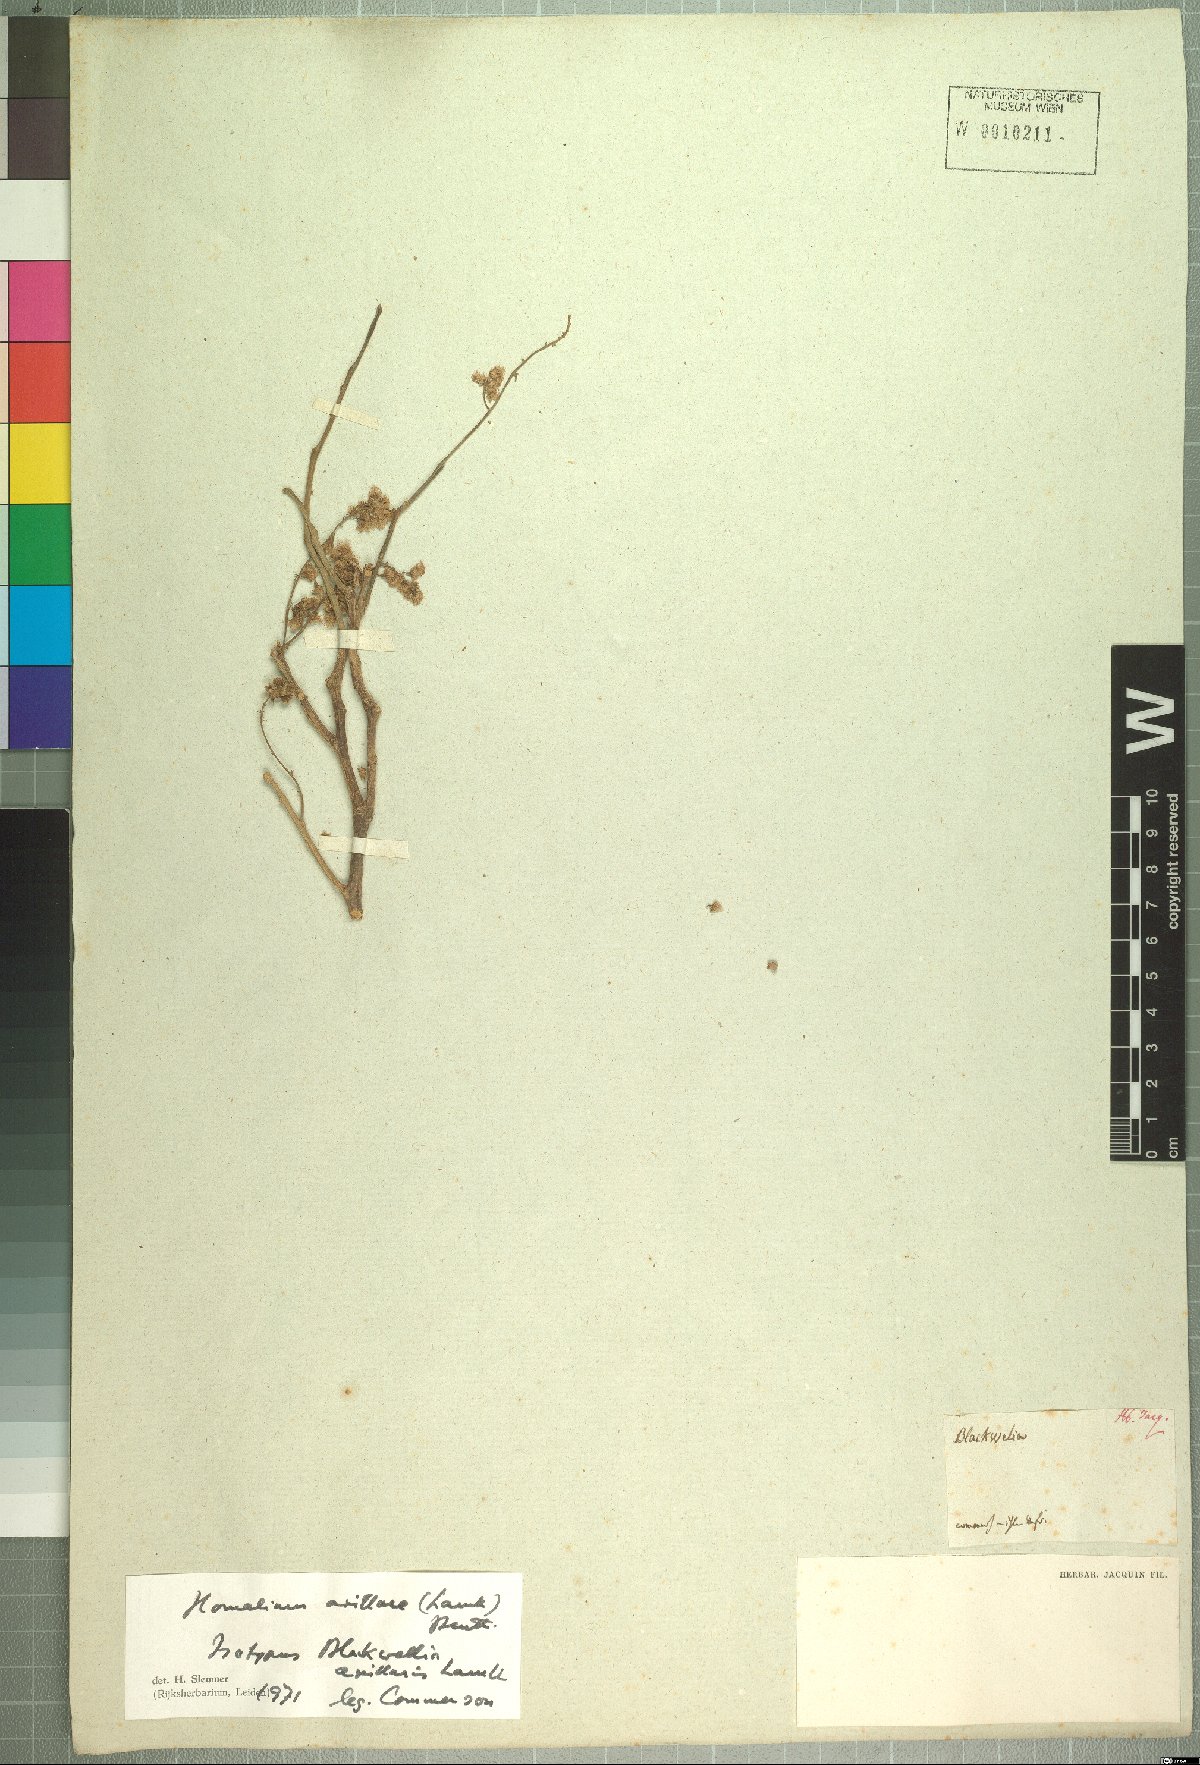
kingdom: Plantae
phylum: Tracheophyta
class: Magnoliopsida
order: Malpighiales
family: Salicaceae
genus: Homalium
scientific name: Homalium axillare
